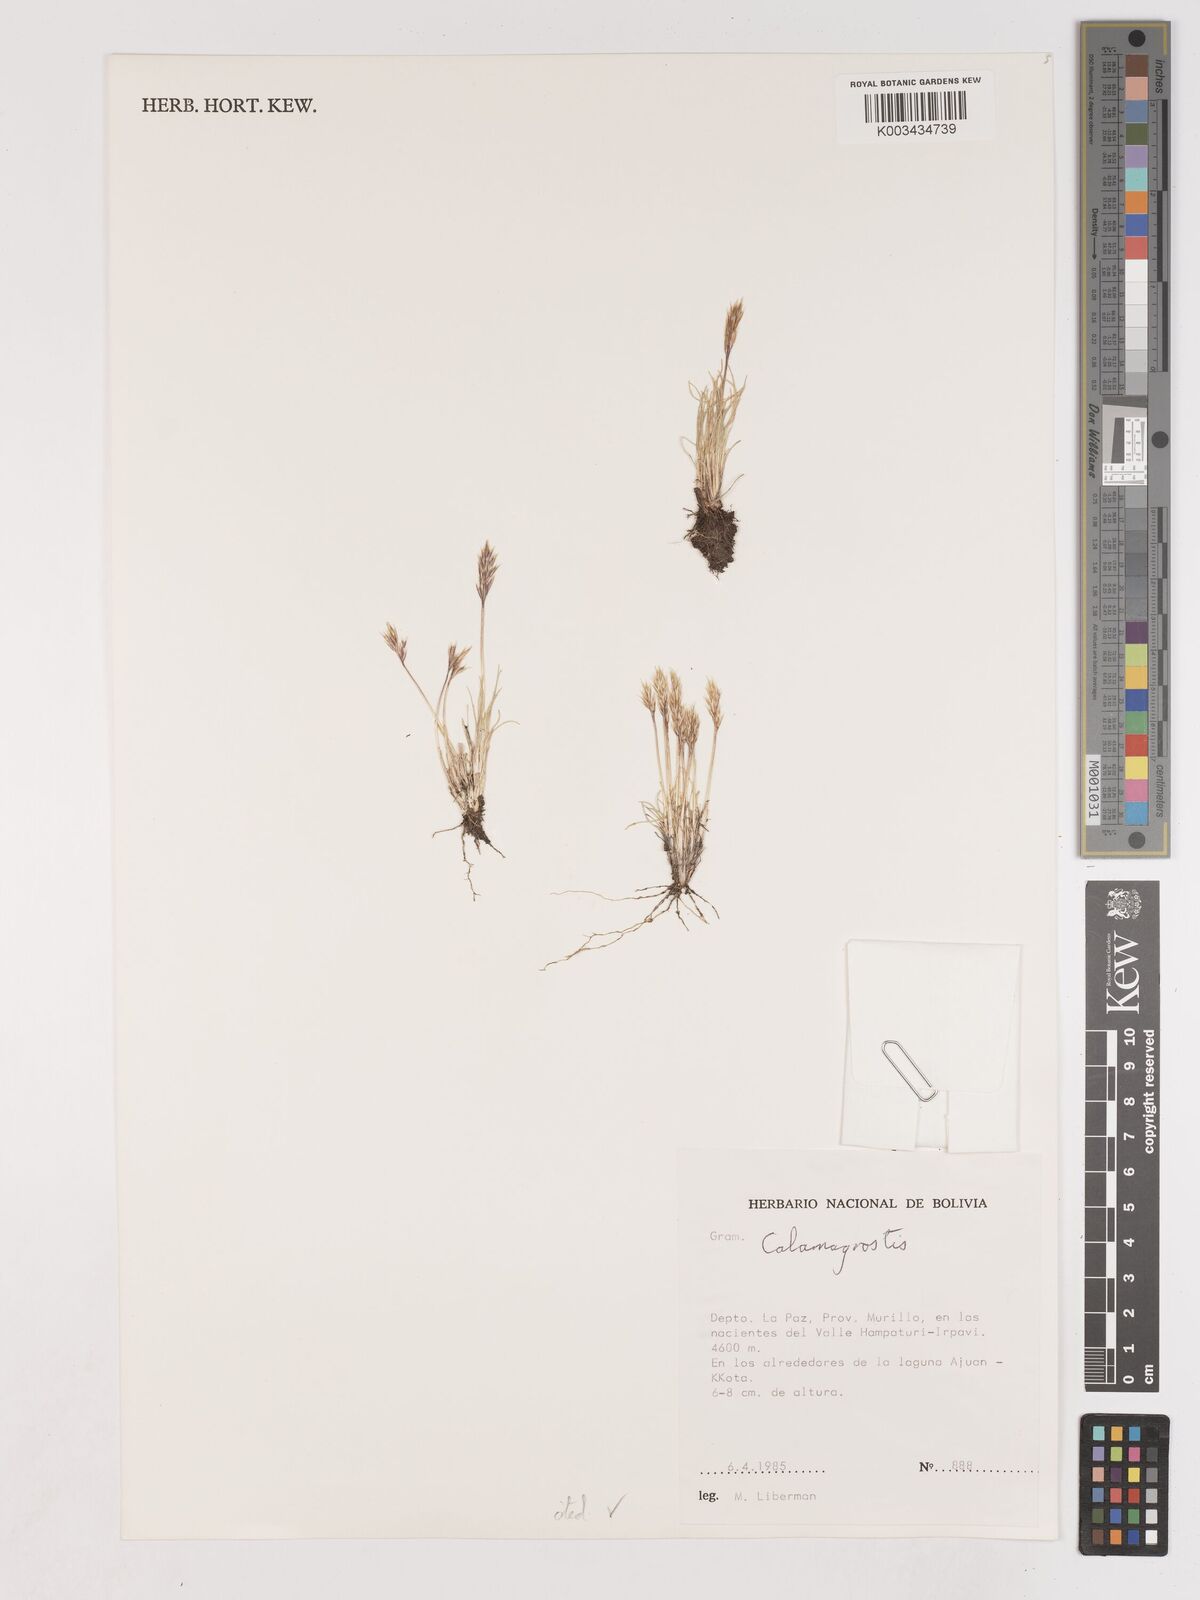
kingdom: Plantae
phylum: Tracheophyta
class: Liliopsida
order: Poales
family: Poaceae
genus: Cinnagrostis
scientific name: Cinnagrostis vicunarum
